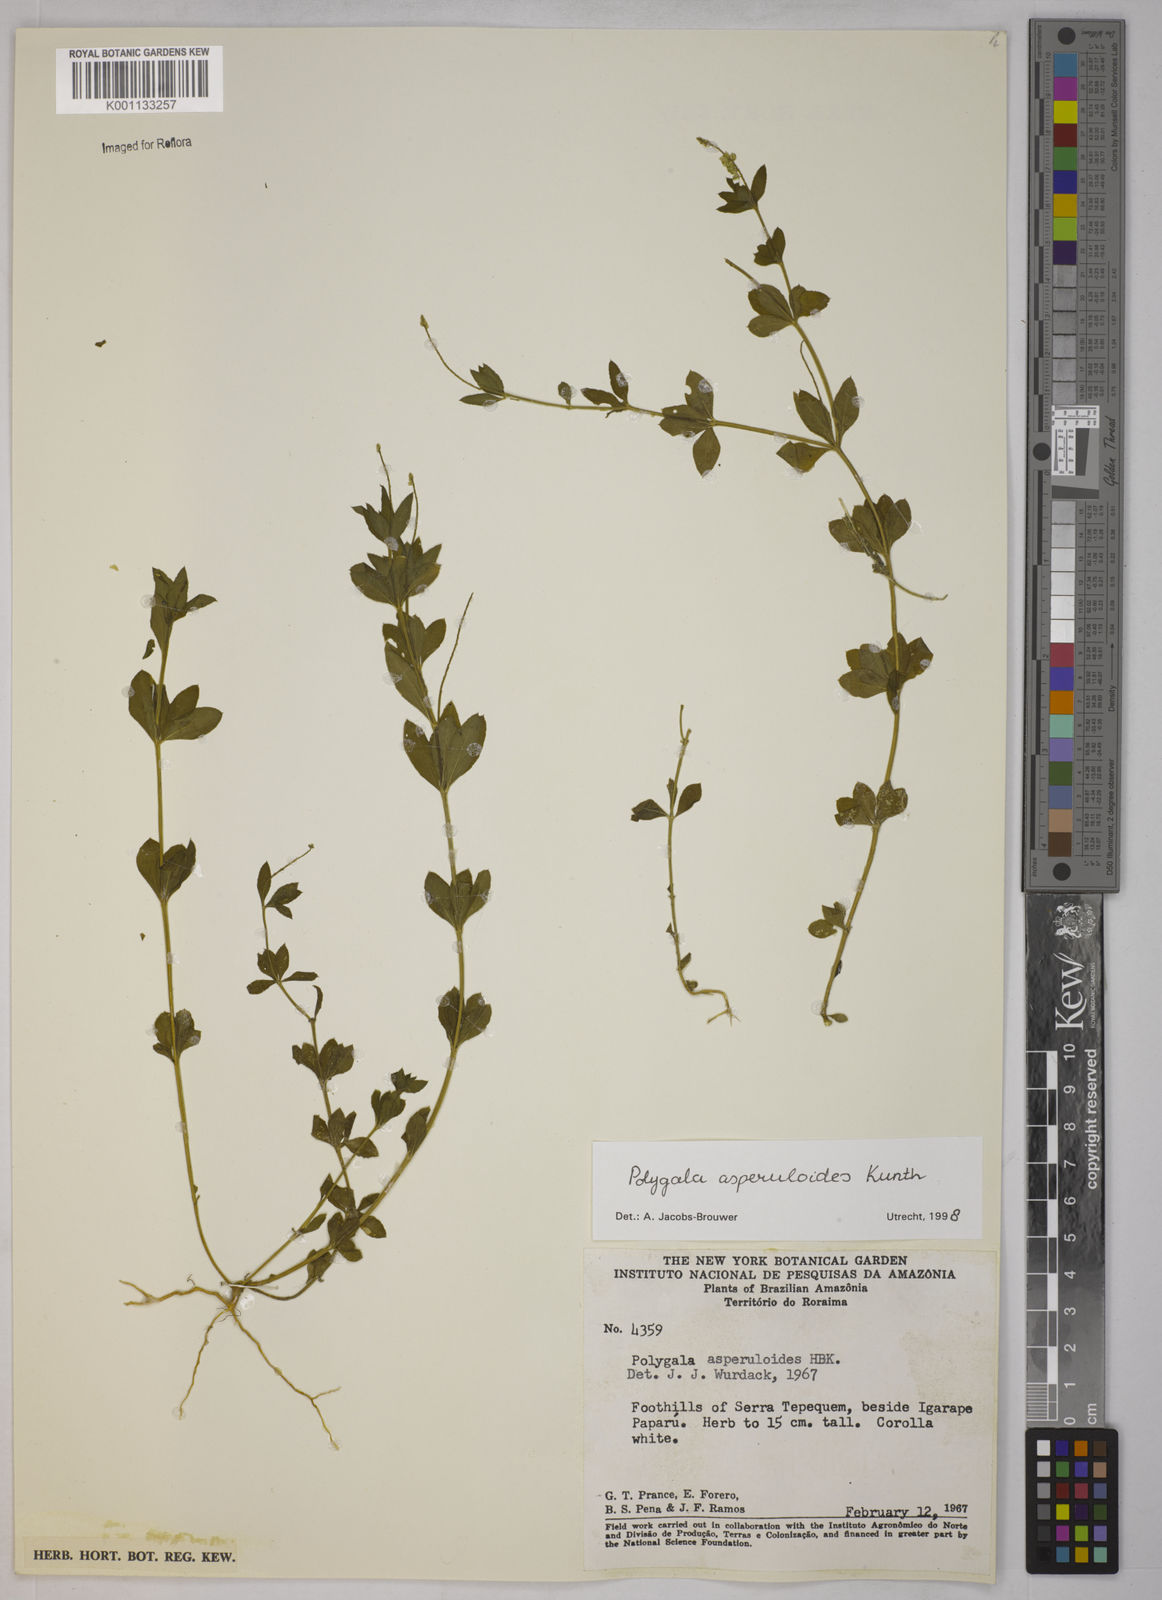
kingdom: Plantae
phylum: Tracheophyta
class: Magnoliopsida
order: Fabales
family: Polygalaceae
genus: Polygala
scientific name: Polygala asperuloides
